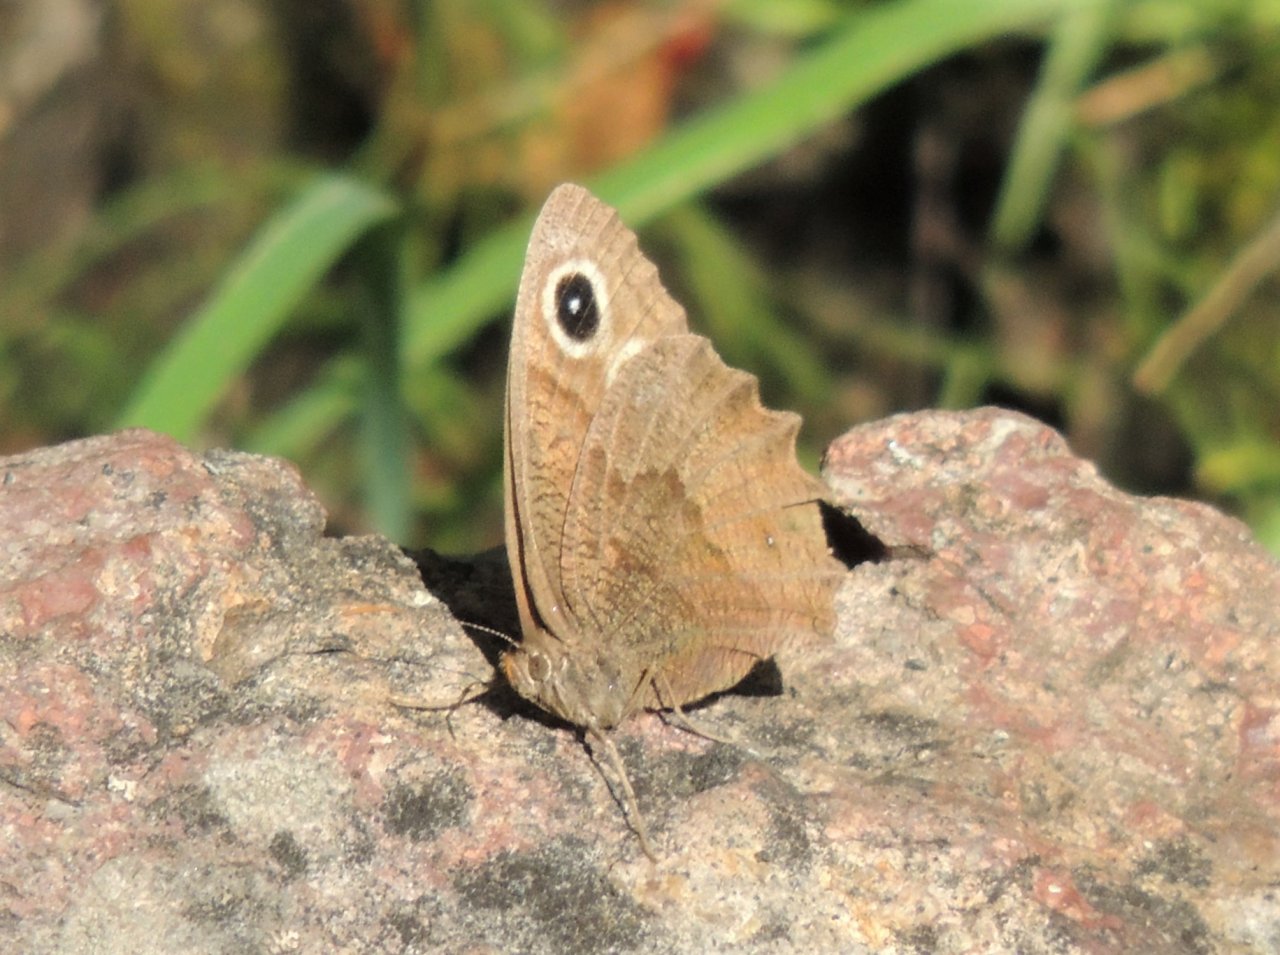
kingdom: Animalia
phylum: Arthropoda
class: Insecta
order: Lepidoptera
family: Nymphalidae
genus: Cercyonis
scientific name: Cercyonis pegala
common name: Common Wood-Nymph
